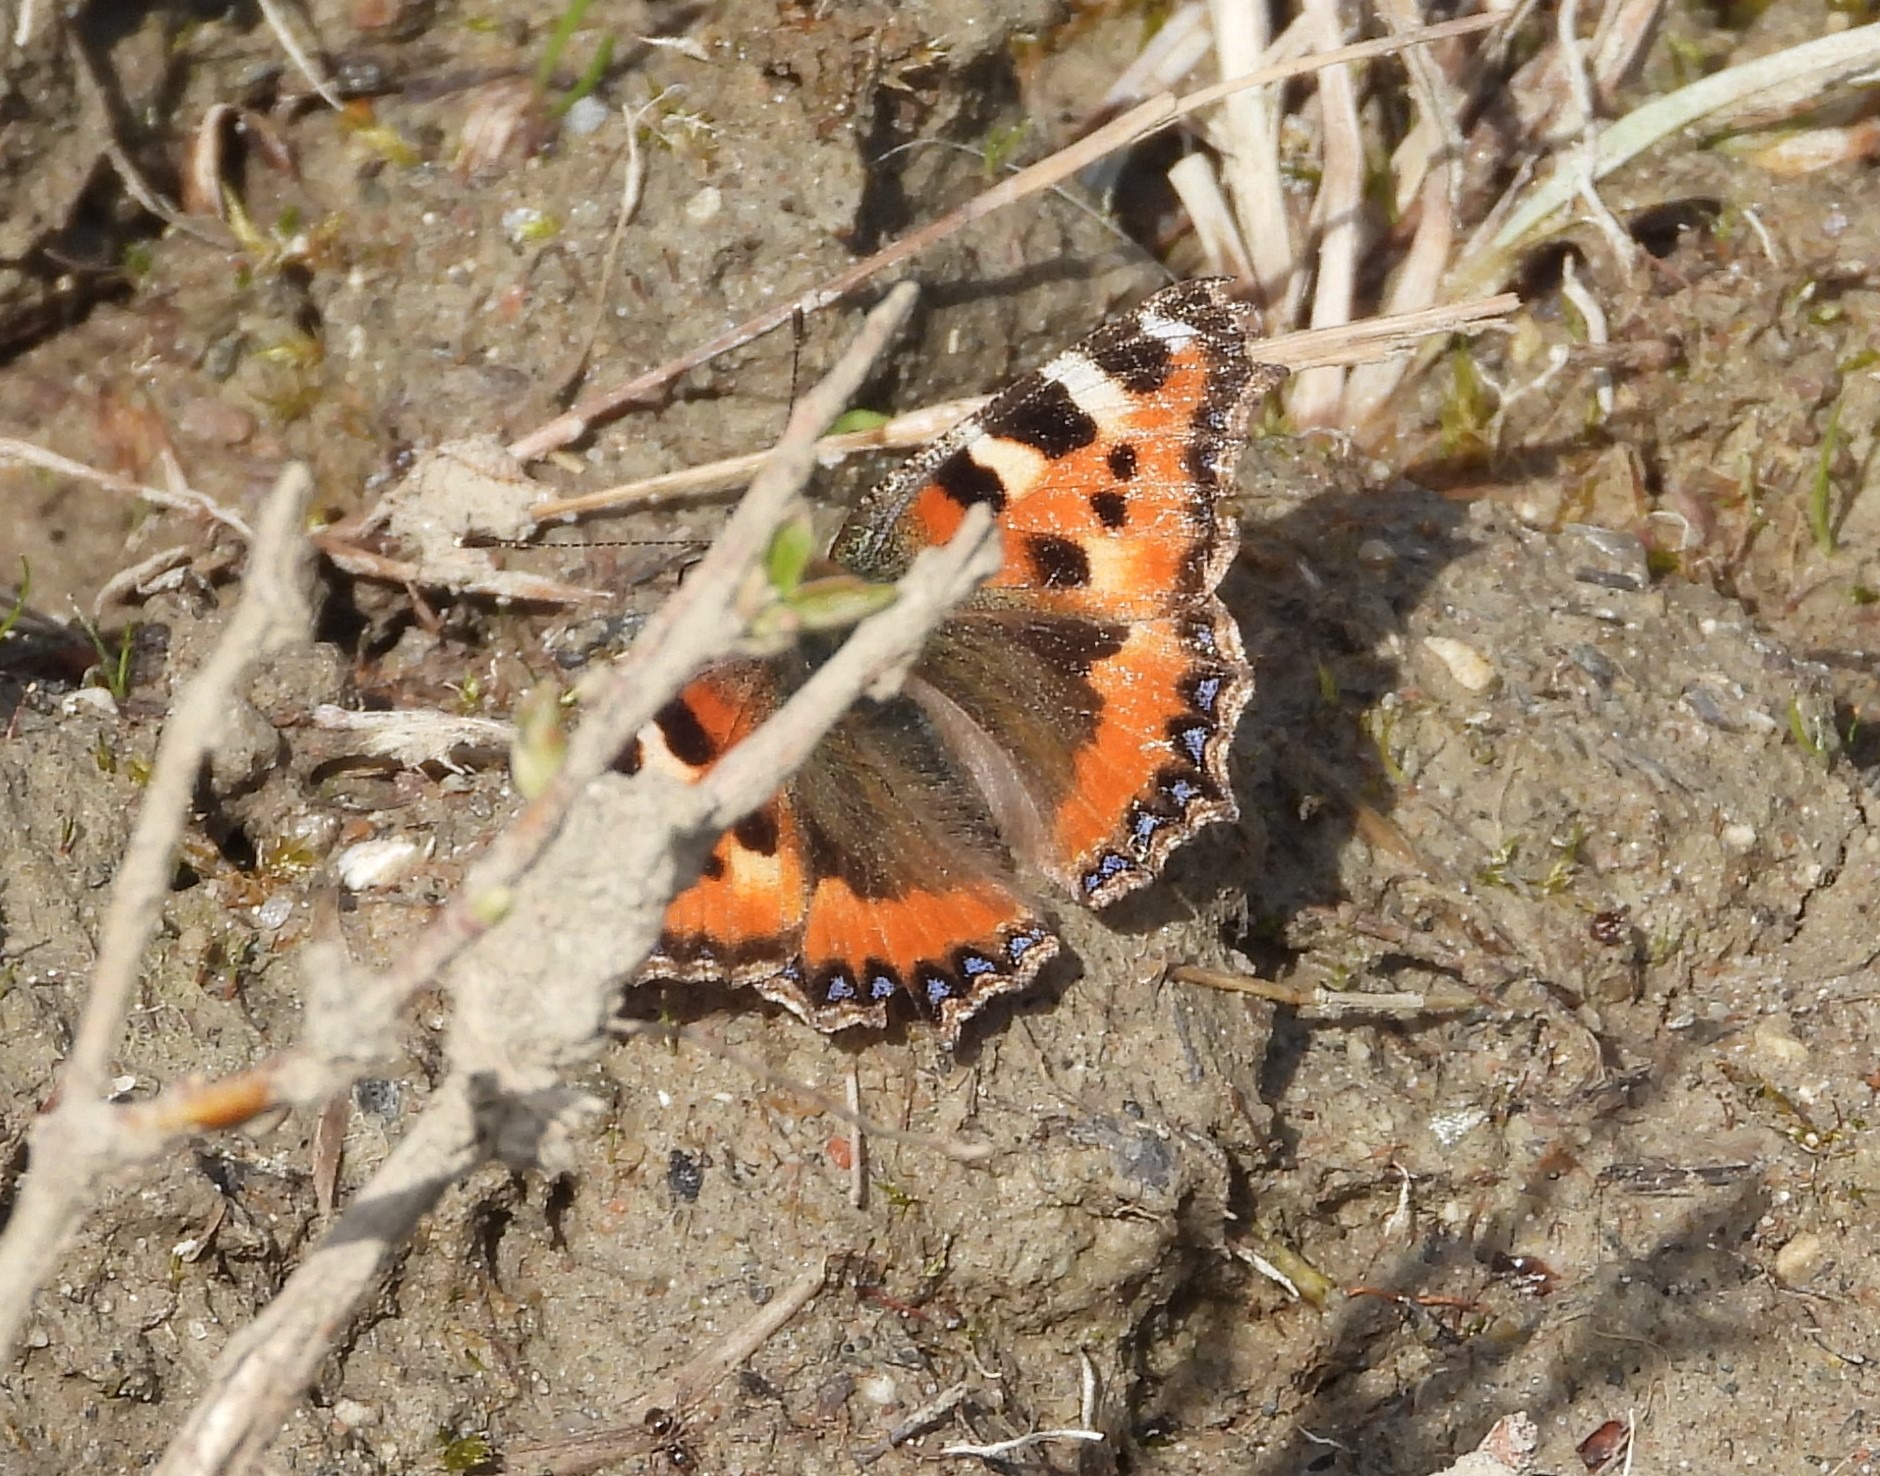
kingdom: Animalia
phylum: Arthropoda
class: Insecta
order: Lepidoptera
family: Nymphalidae
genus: Aglais
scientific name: Aglais urticae
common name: Nældens takvinge
